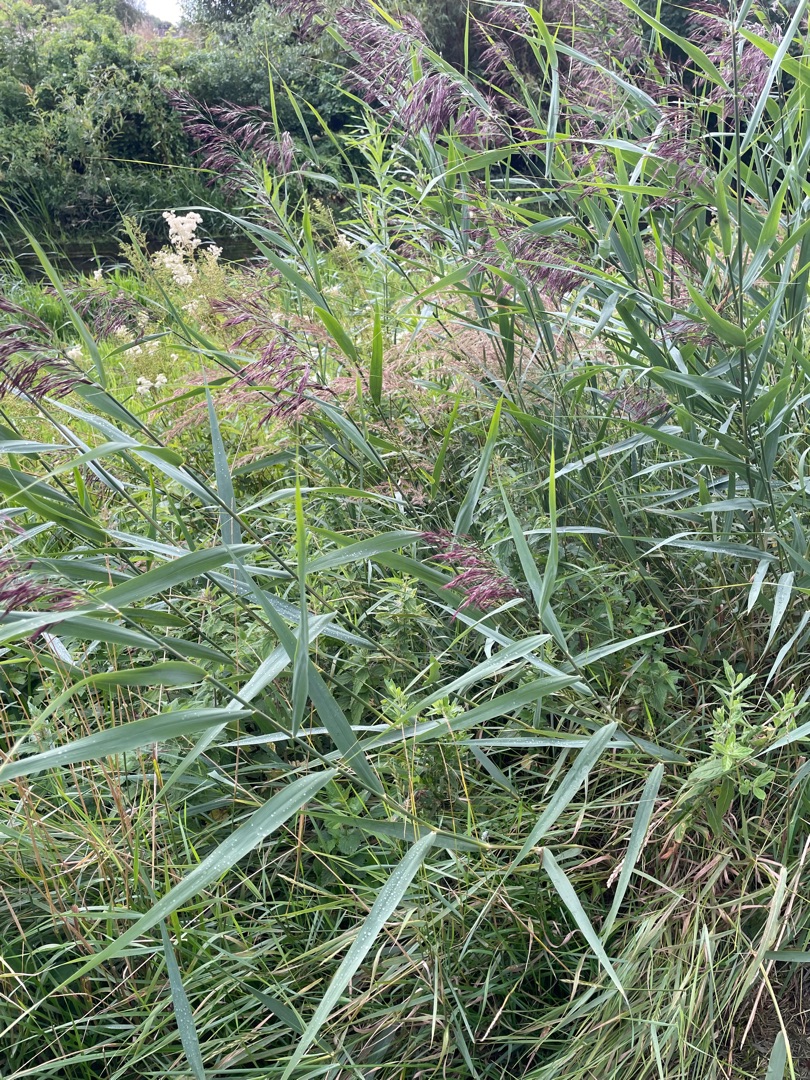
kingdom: Plantae
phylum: Tracheophyta
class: Liliopsida
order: Poales
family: Poaceae
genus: Phragmites
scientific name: Phragmites australis
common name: Tagrør
